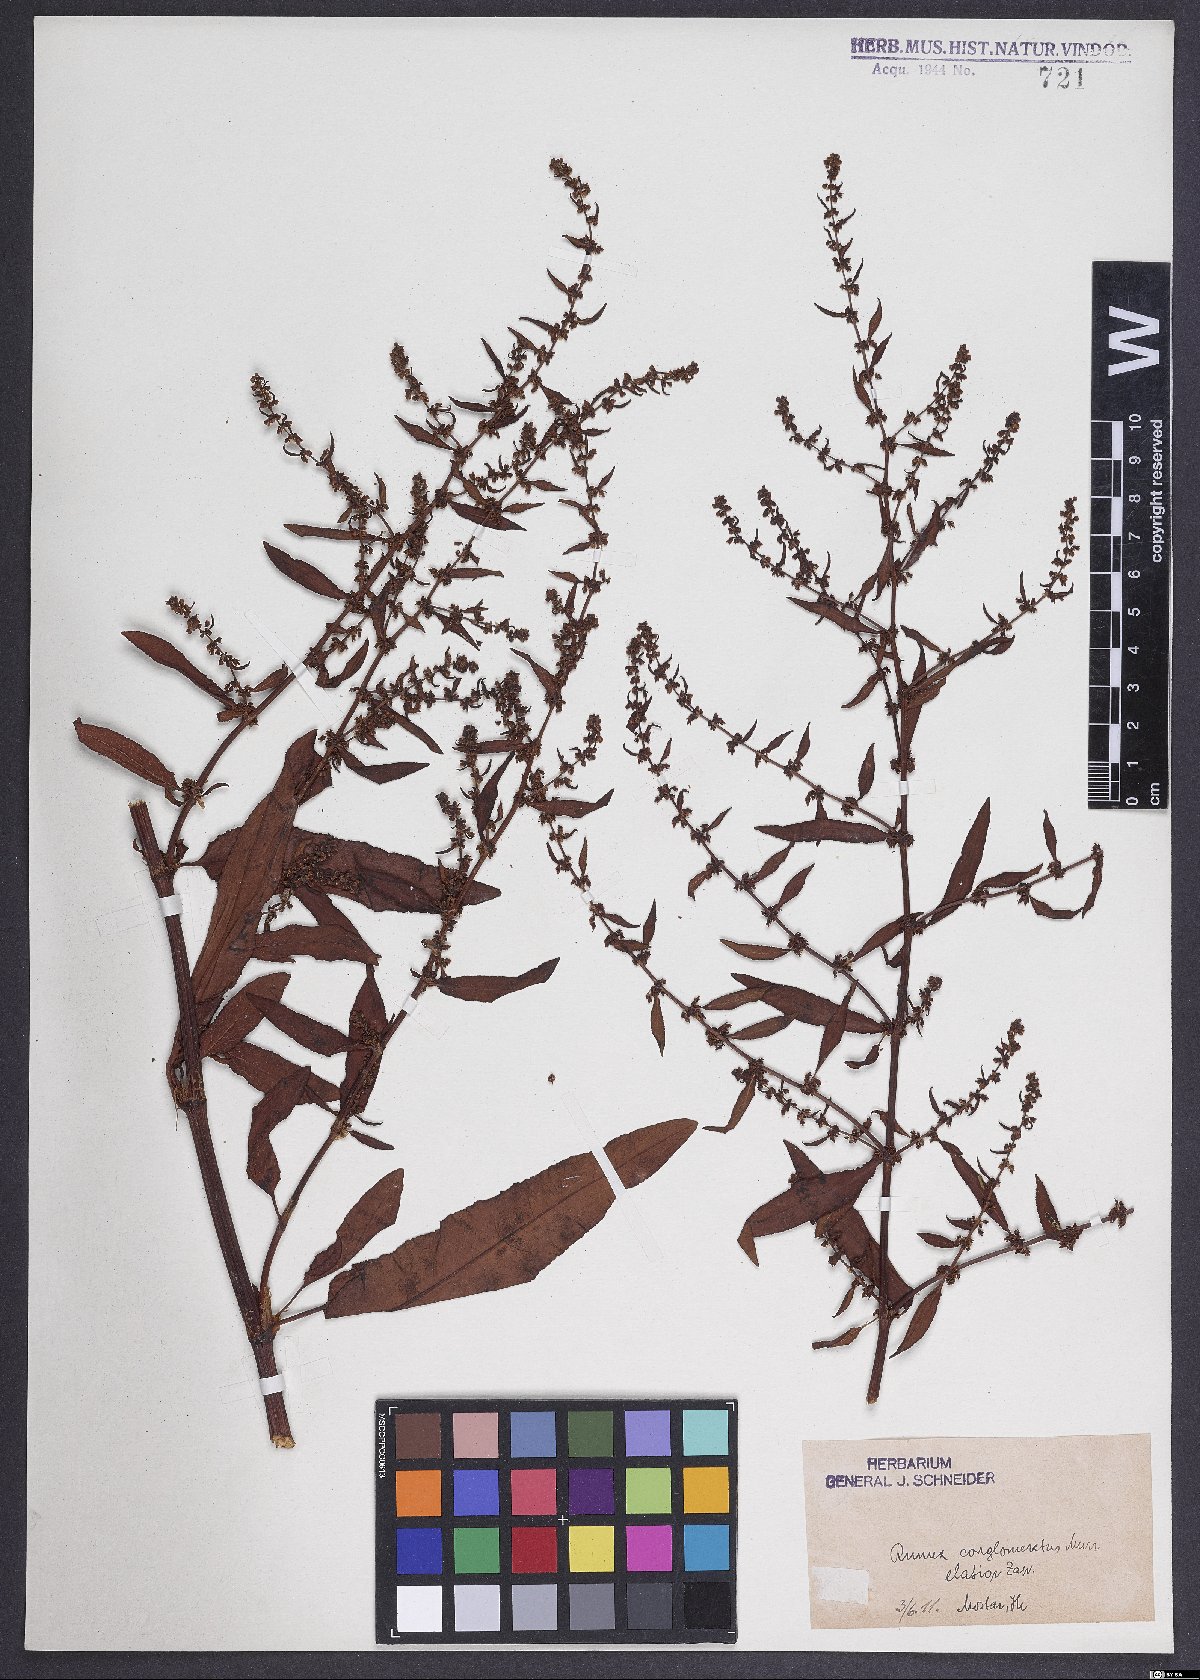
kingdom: Plantae
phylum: Tracheophyta
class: Magnoliopsida
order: Caryophyllales
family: Polygonaceae
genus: Rumex
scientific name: Rumex conglomeratus
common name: Clustered dock
